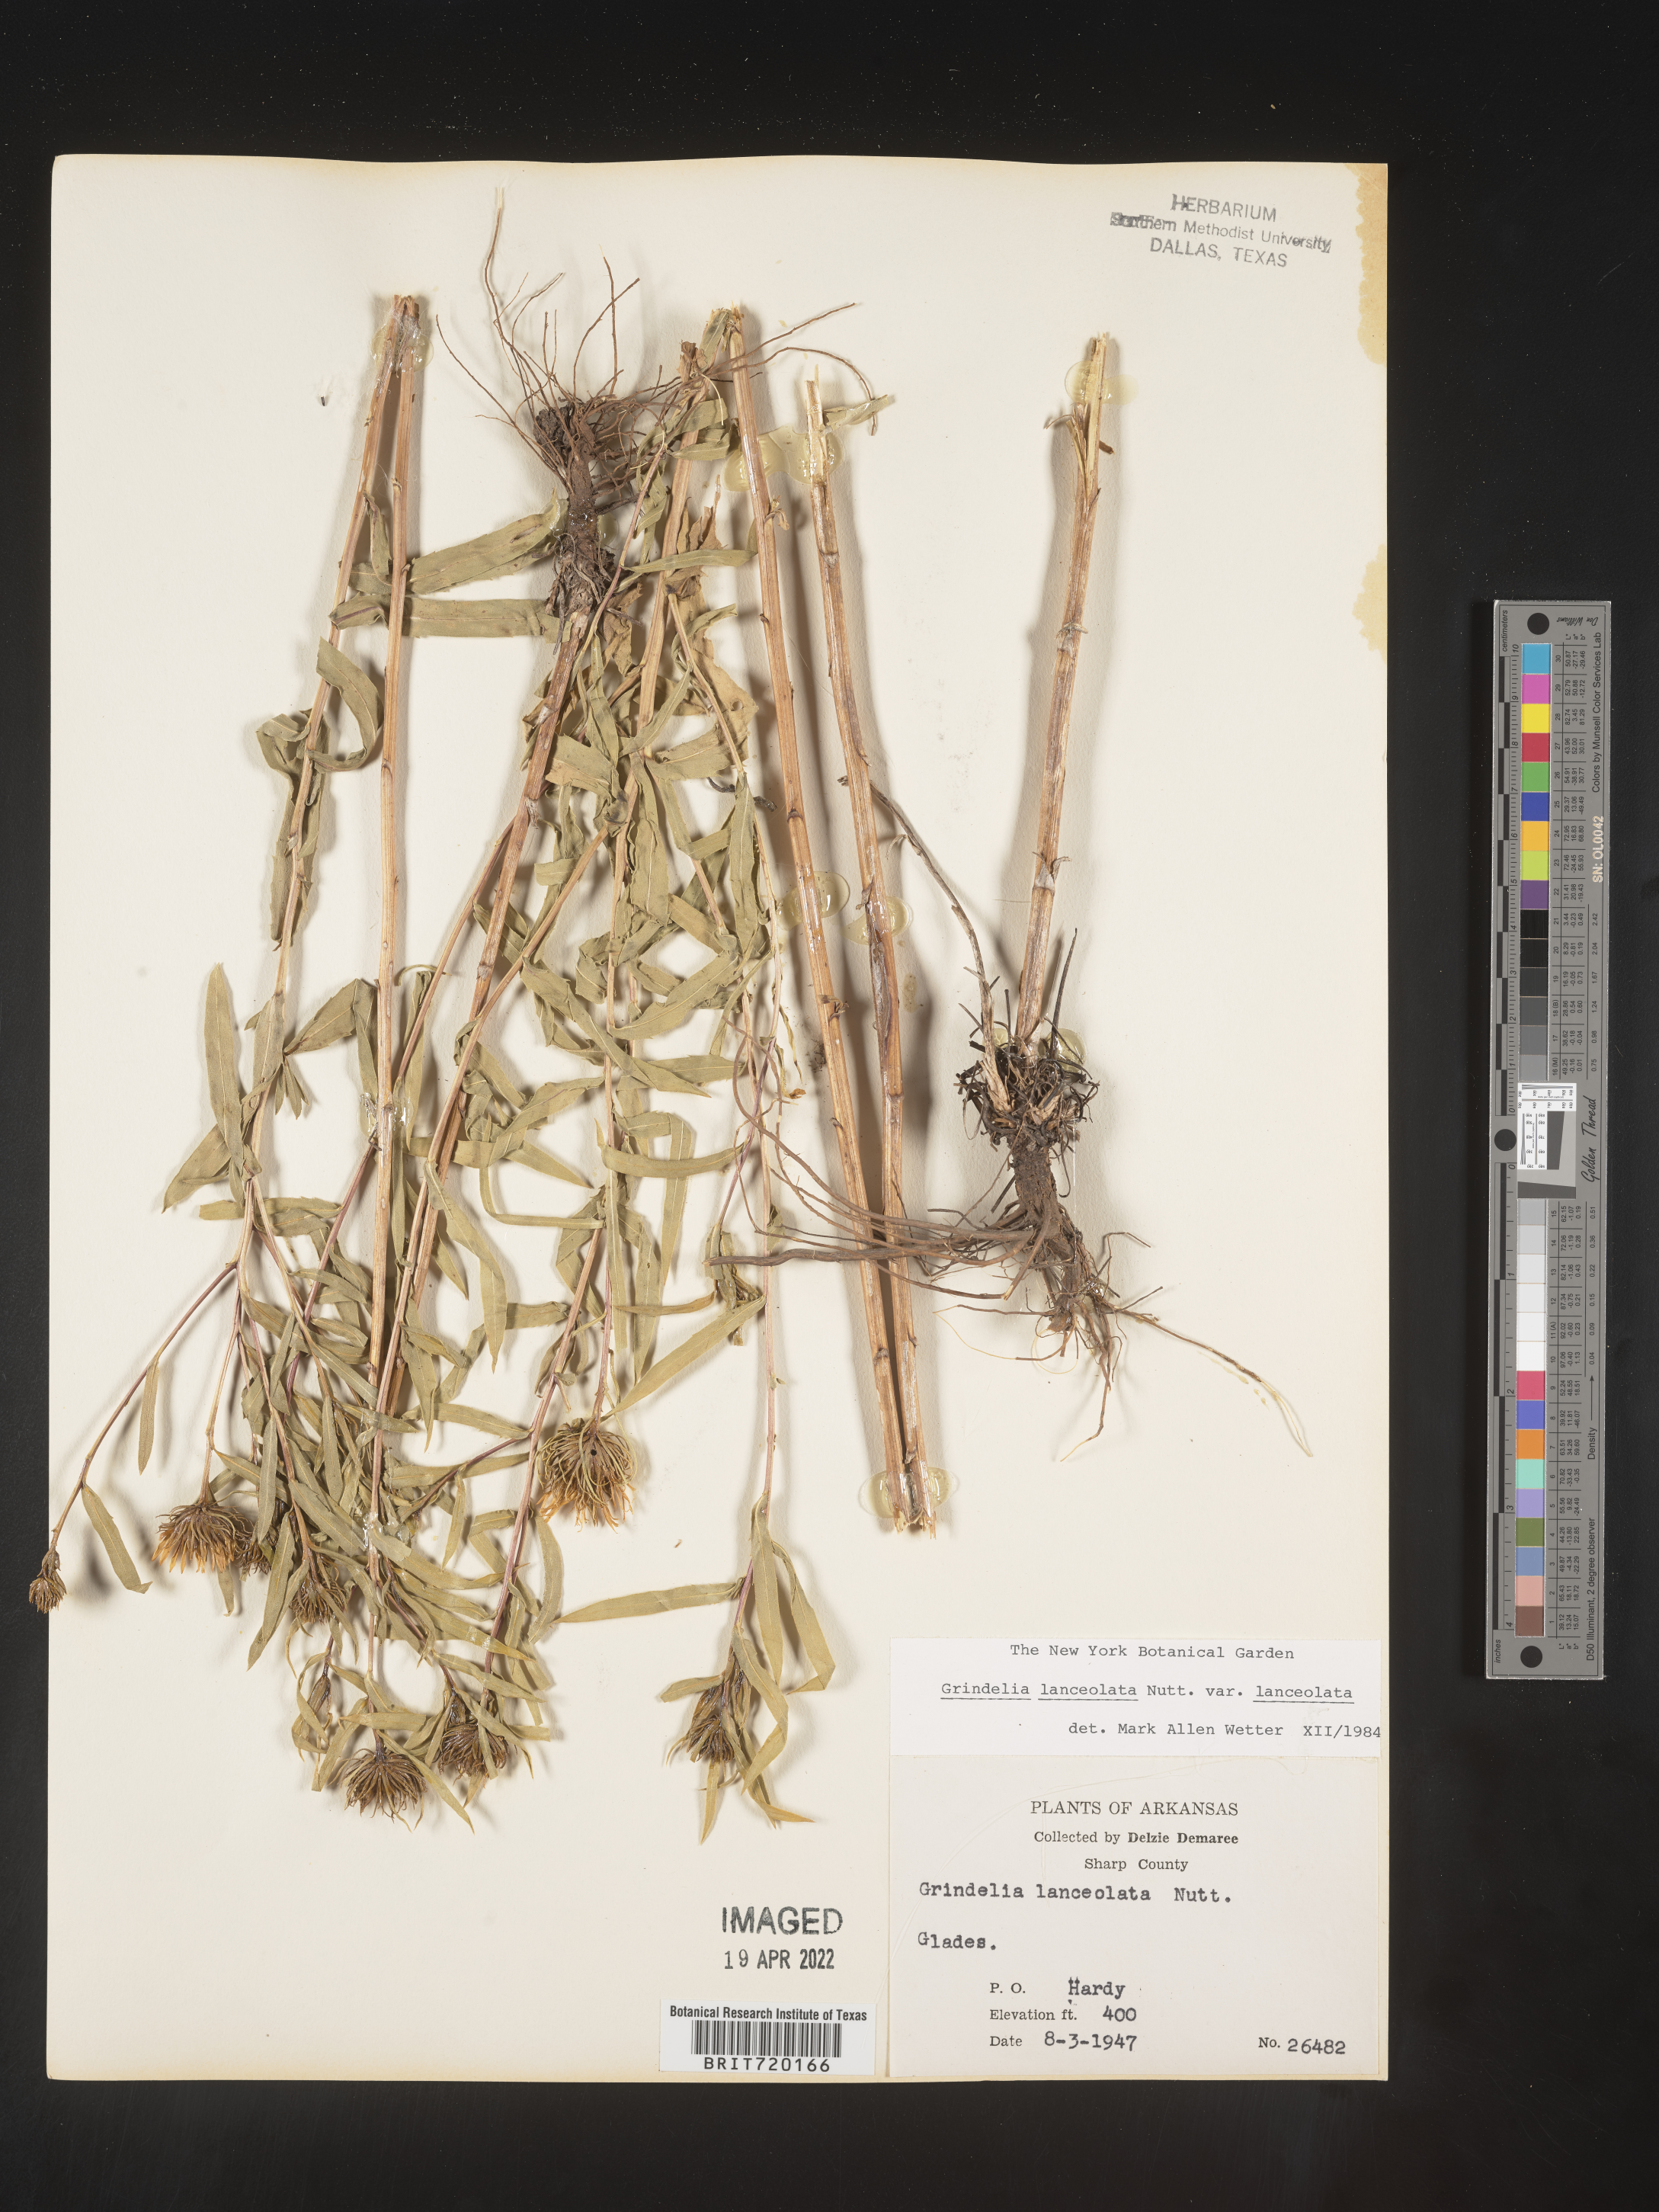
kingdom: Plantae
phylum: Tracheophyta
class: Magnoliopsida
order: Asterales
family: Asteraceae
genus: Grindelia
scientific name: Grindelia lanceolata
